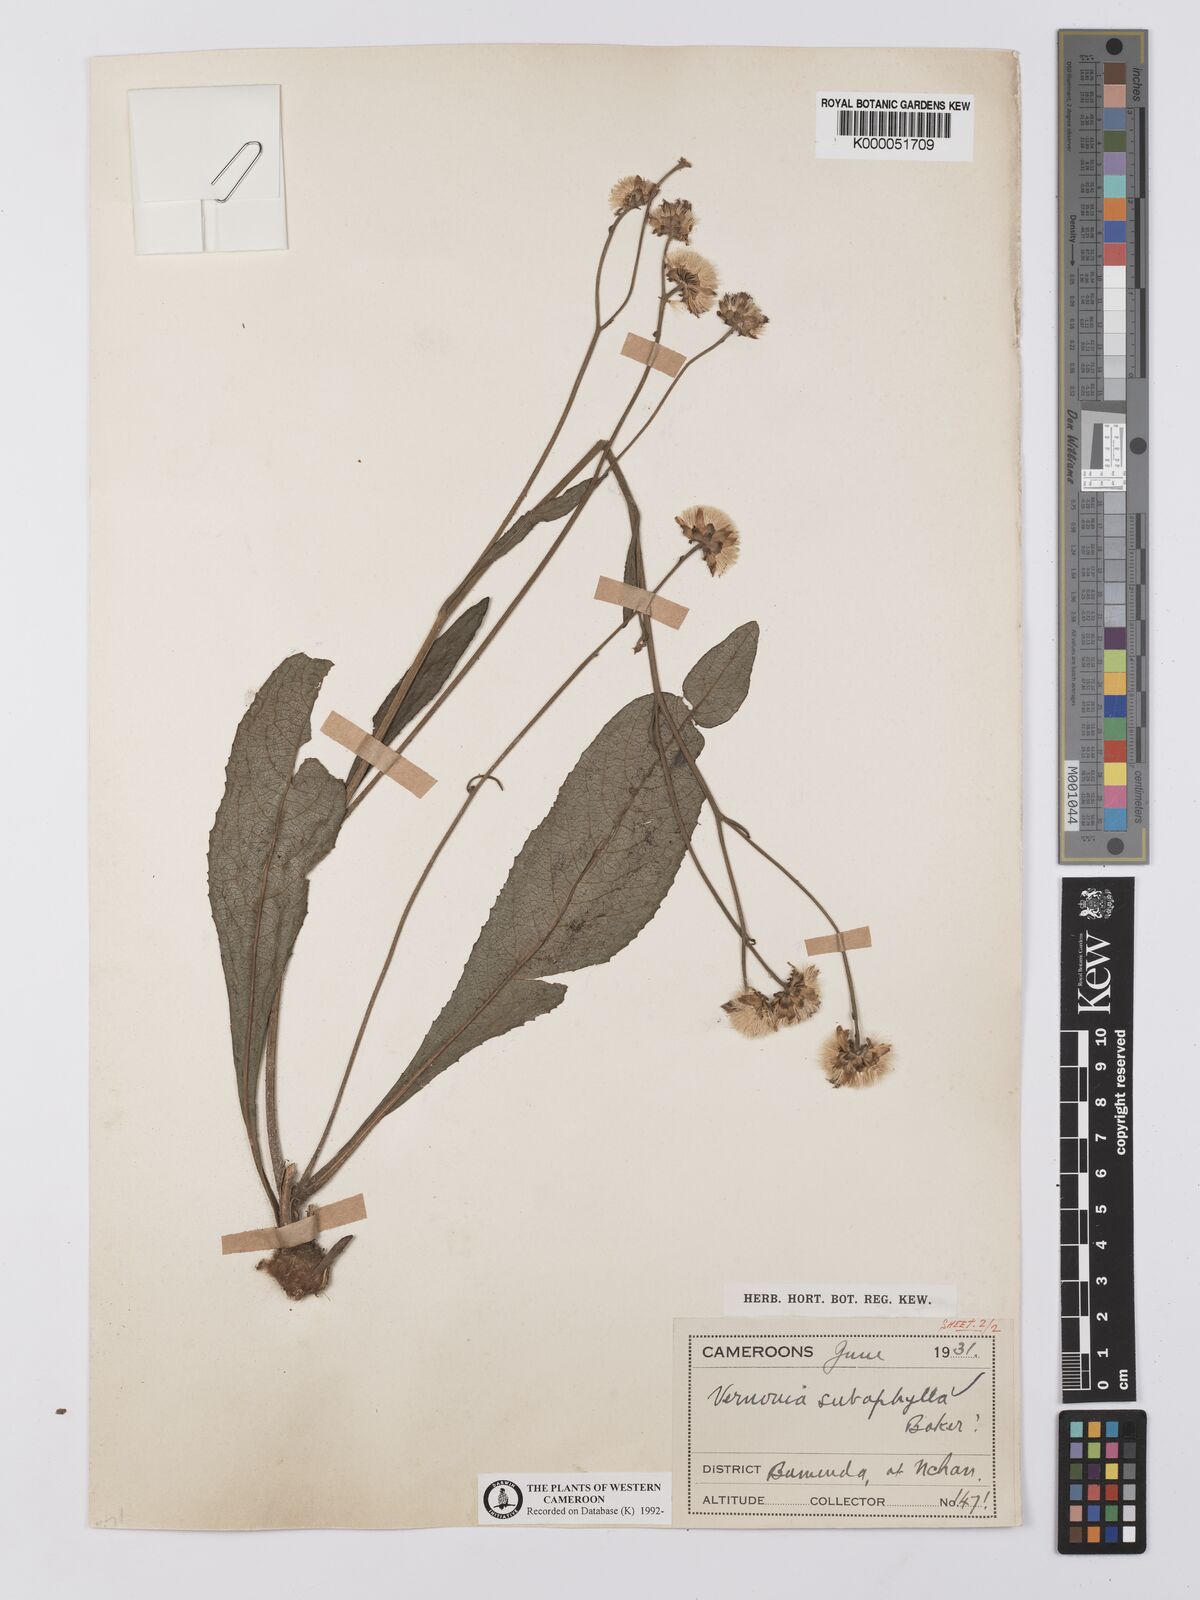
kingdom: Plantae
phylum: Tracheophyta
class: Magnoliopsida
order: Asterales
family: Asteraceae
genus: Vernonella
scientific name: Vernonella subaphylla
